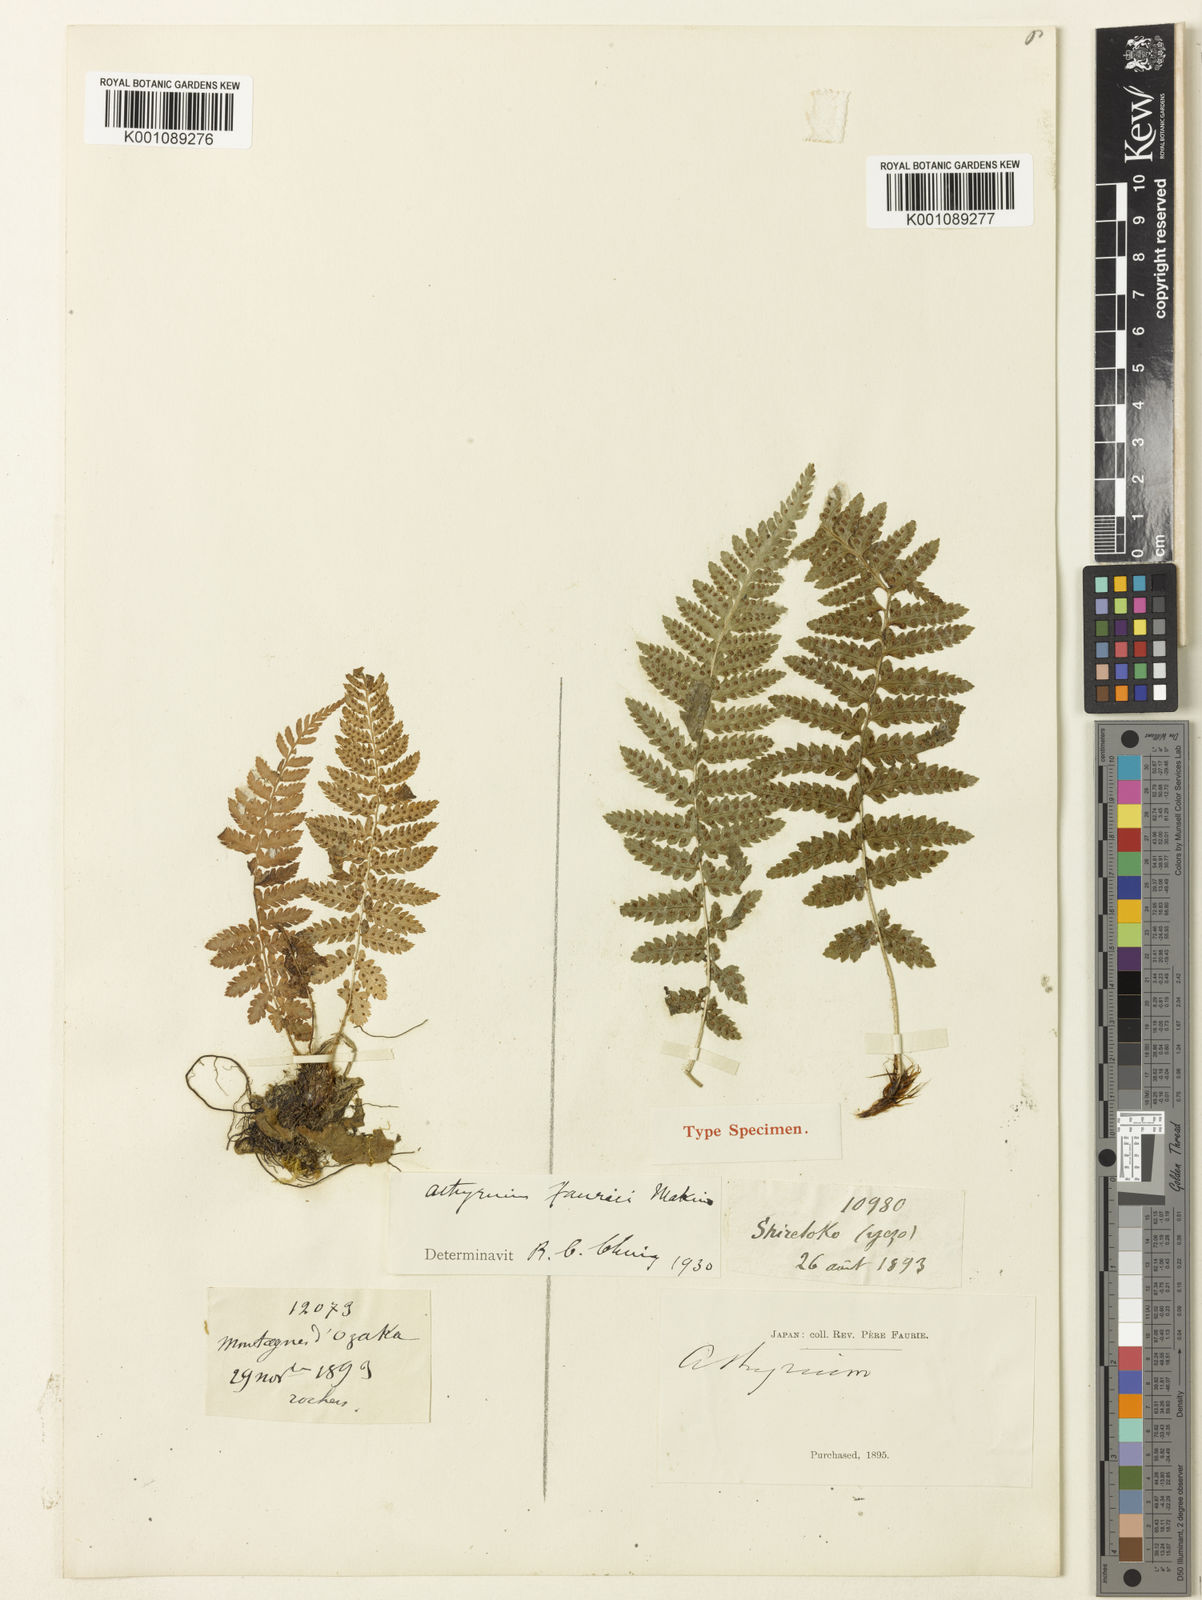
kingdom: Plantae
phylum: Tracheophyta
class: Polypodiopsida
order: Polypodiales
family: Athyriaceae
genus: Athyrium
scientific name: Athyrium fallaciosum
